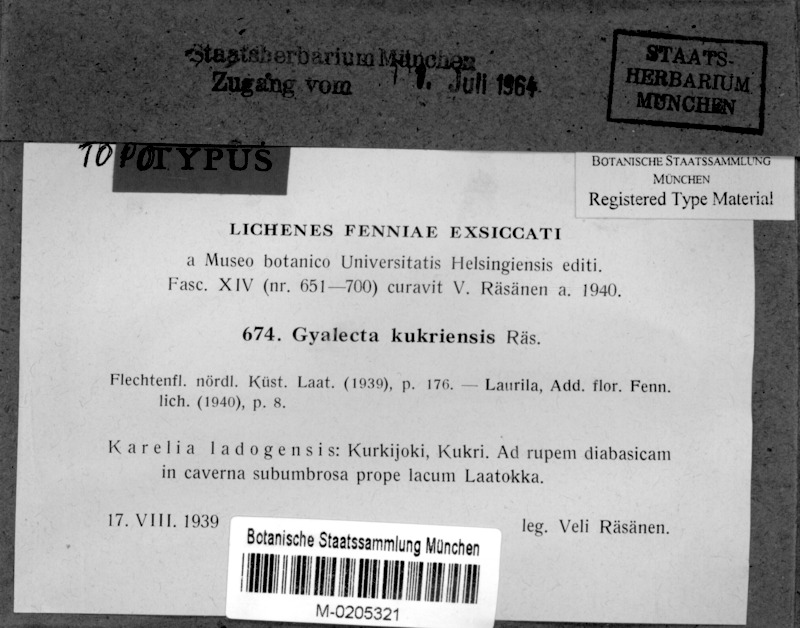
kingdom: Fungi
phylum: Ascomycota
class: Lecanoromycetes
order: Gyalectales
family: Gyalectaceae
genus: Gyalecta
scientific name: Gyalecta kukriensis
